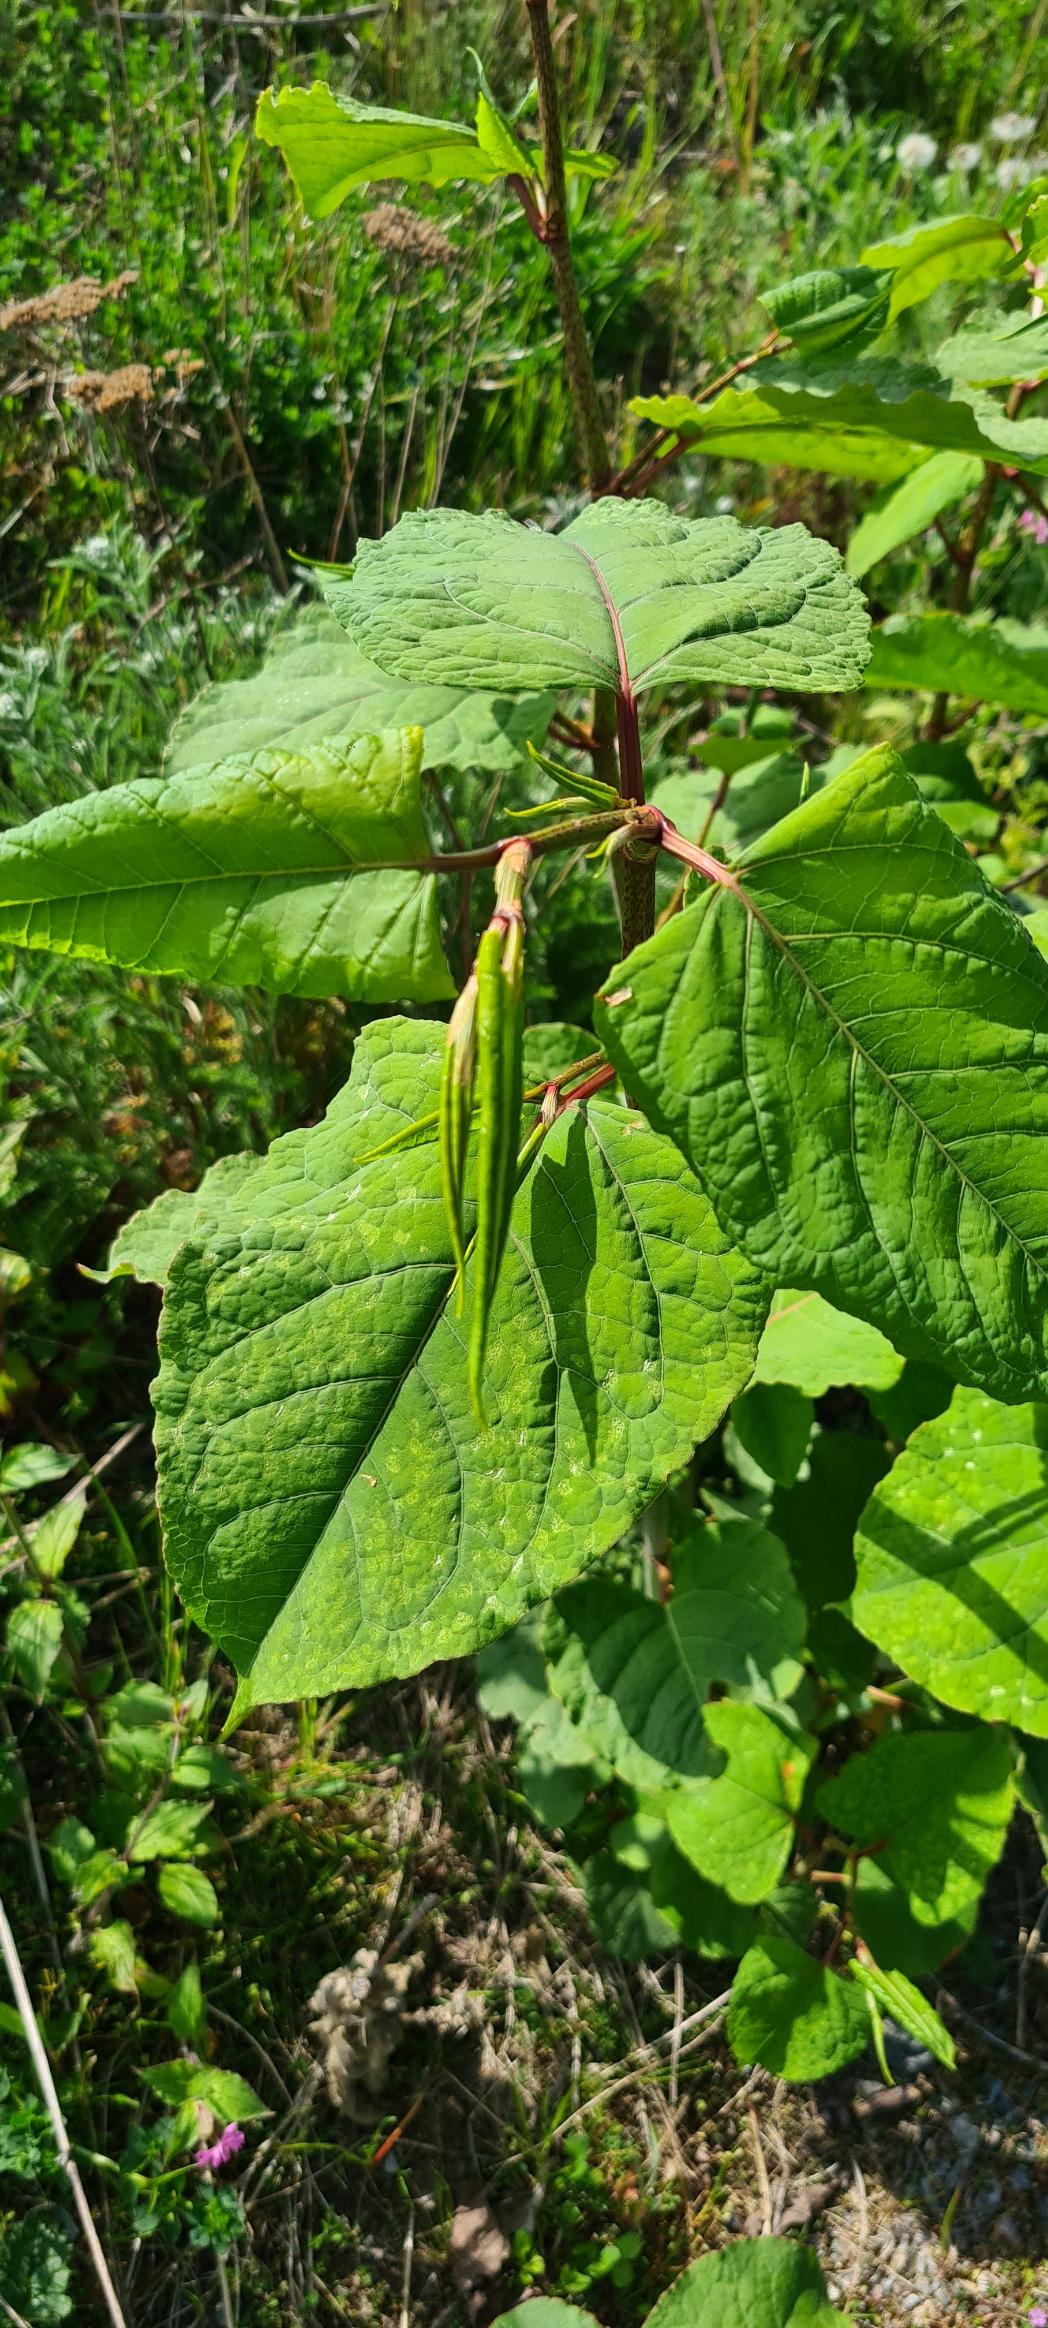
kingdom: Plantae
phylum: Tracheophyta
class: Magnoliopsida
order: Caryophyllales
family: Polygonaceae
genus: Reynoutria
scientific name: Reynoutria japonica
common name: Japan-pileurt
